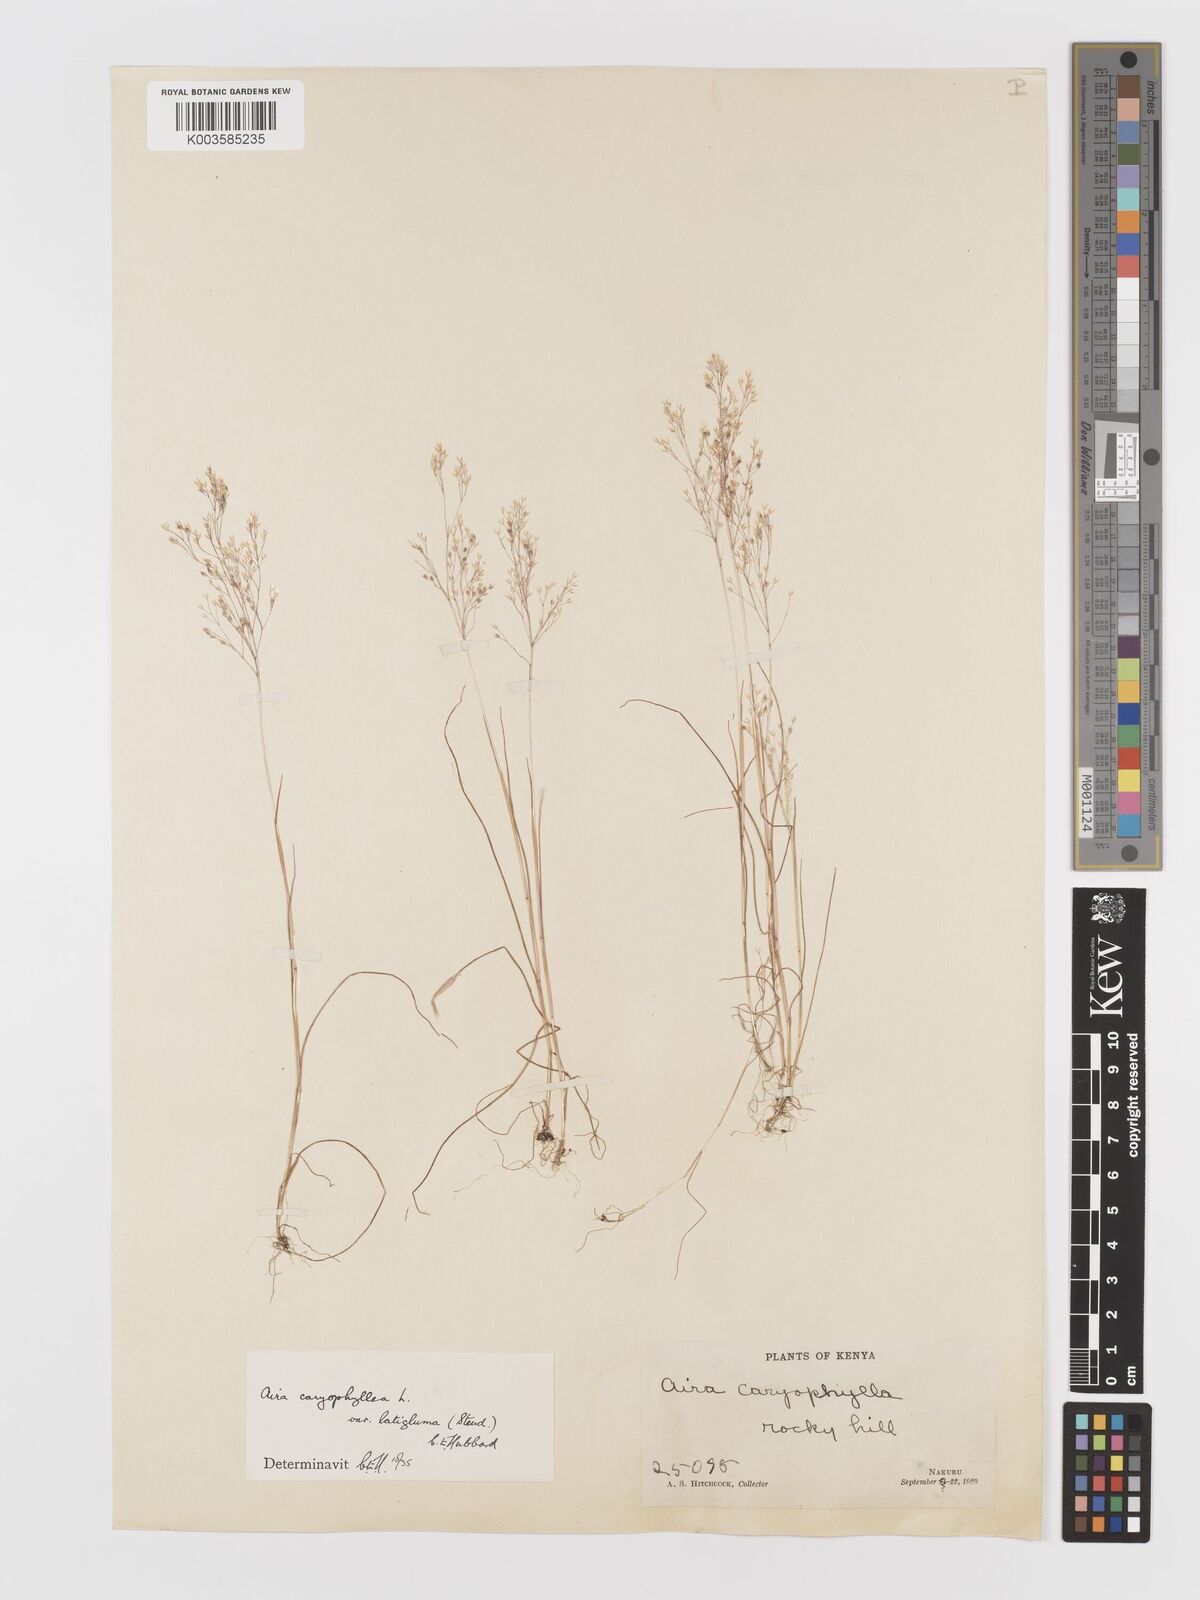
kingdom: Plantae
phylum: Tracheophyta
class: Liliopsida
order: Poales
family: Poaceae
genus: Aira
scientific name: Aira caryophyllea
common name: Silver hairgrass
